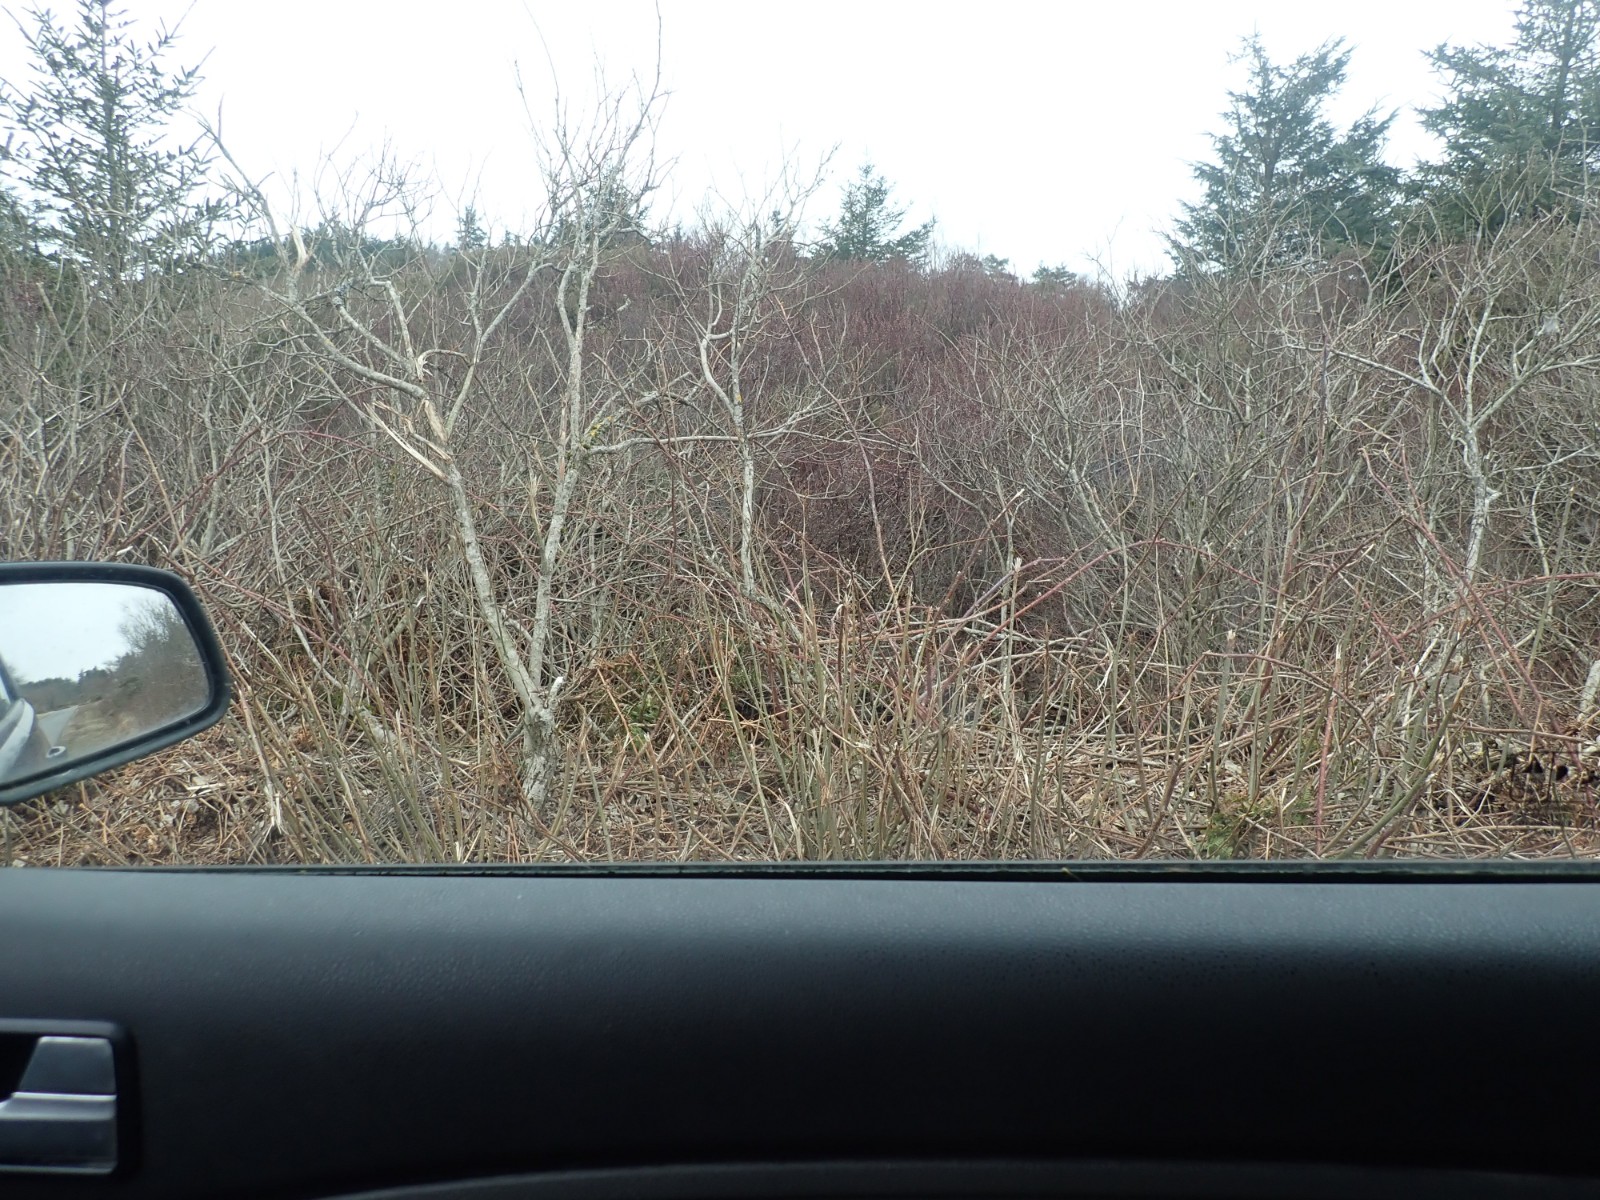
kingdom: Fungi
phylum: Ascomycota
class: Leotiomycetes
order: Rhytismatales
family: Rhytismataceae
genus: Rhytisma
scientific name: Rhytisma acerinum
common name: ahorn-rynkeplet
